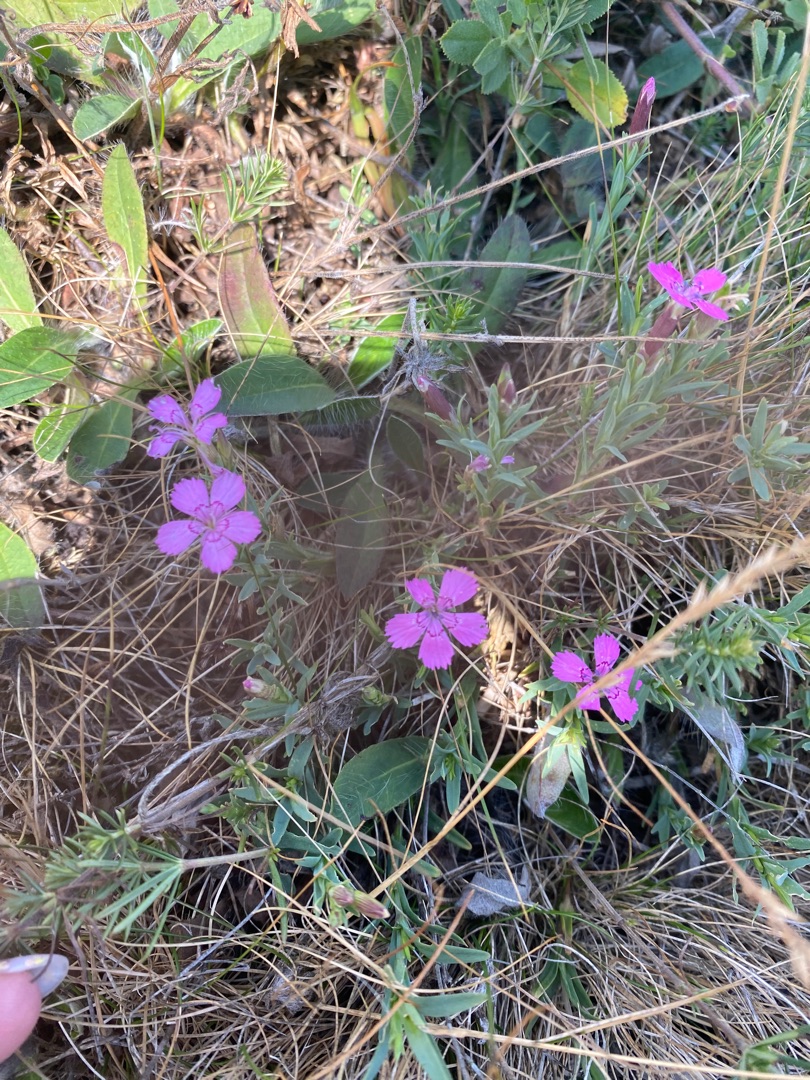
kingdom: Plantae
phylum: Tracheophyta
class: Magnoliopsida
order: Caryophyllales
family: Caryophyllaceae
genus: Dianthus
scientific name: Dianthus deltoides
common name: Bakke-nellike
